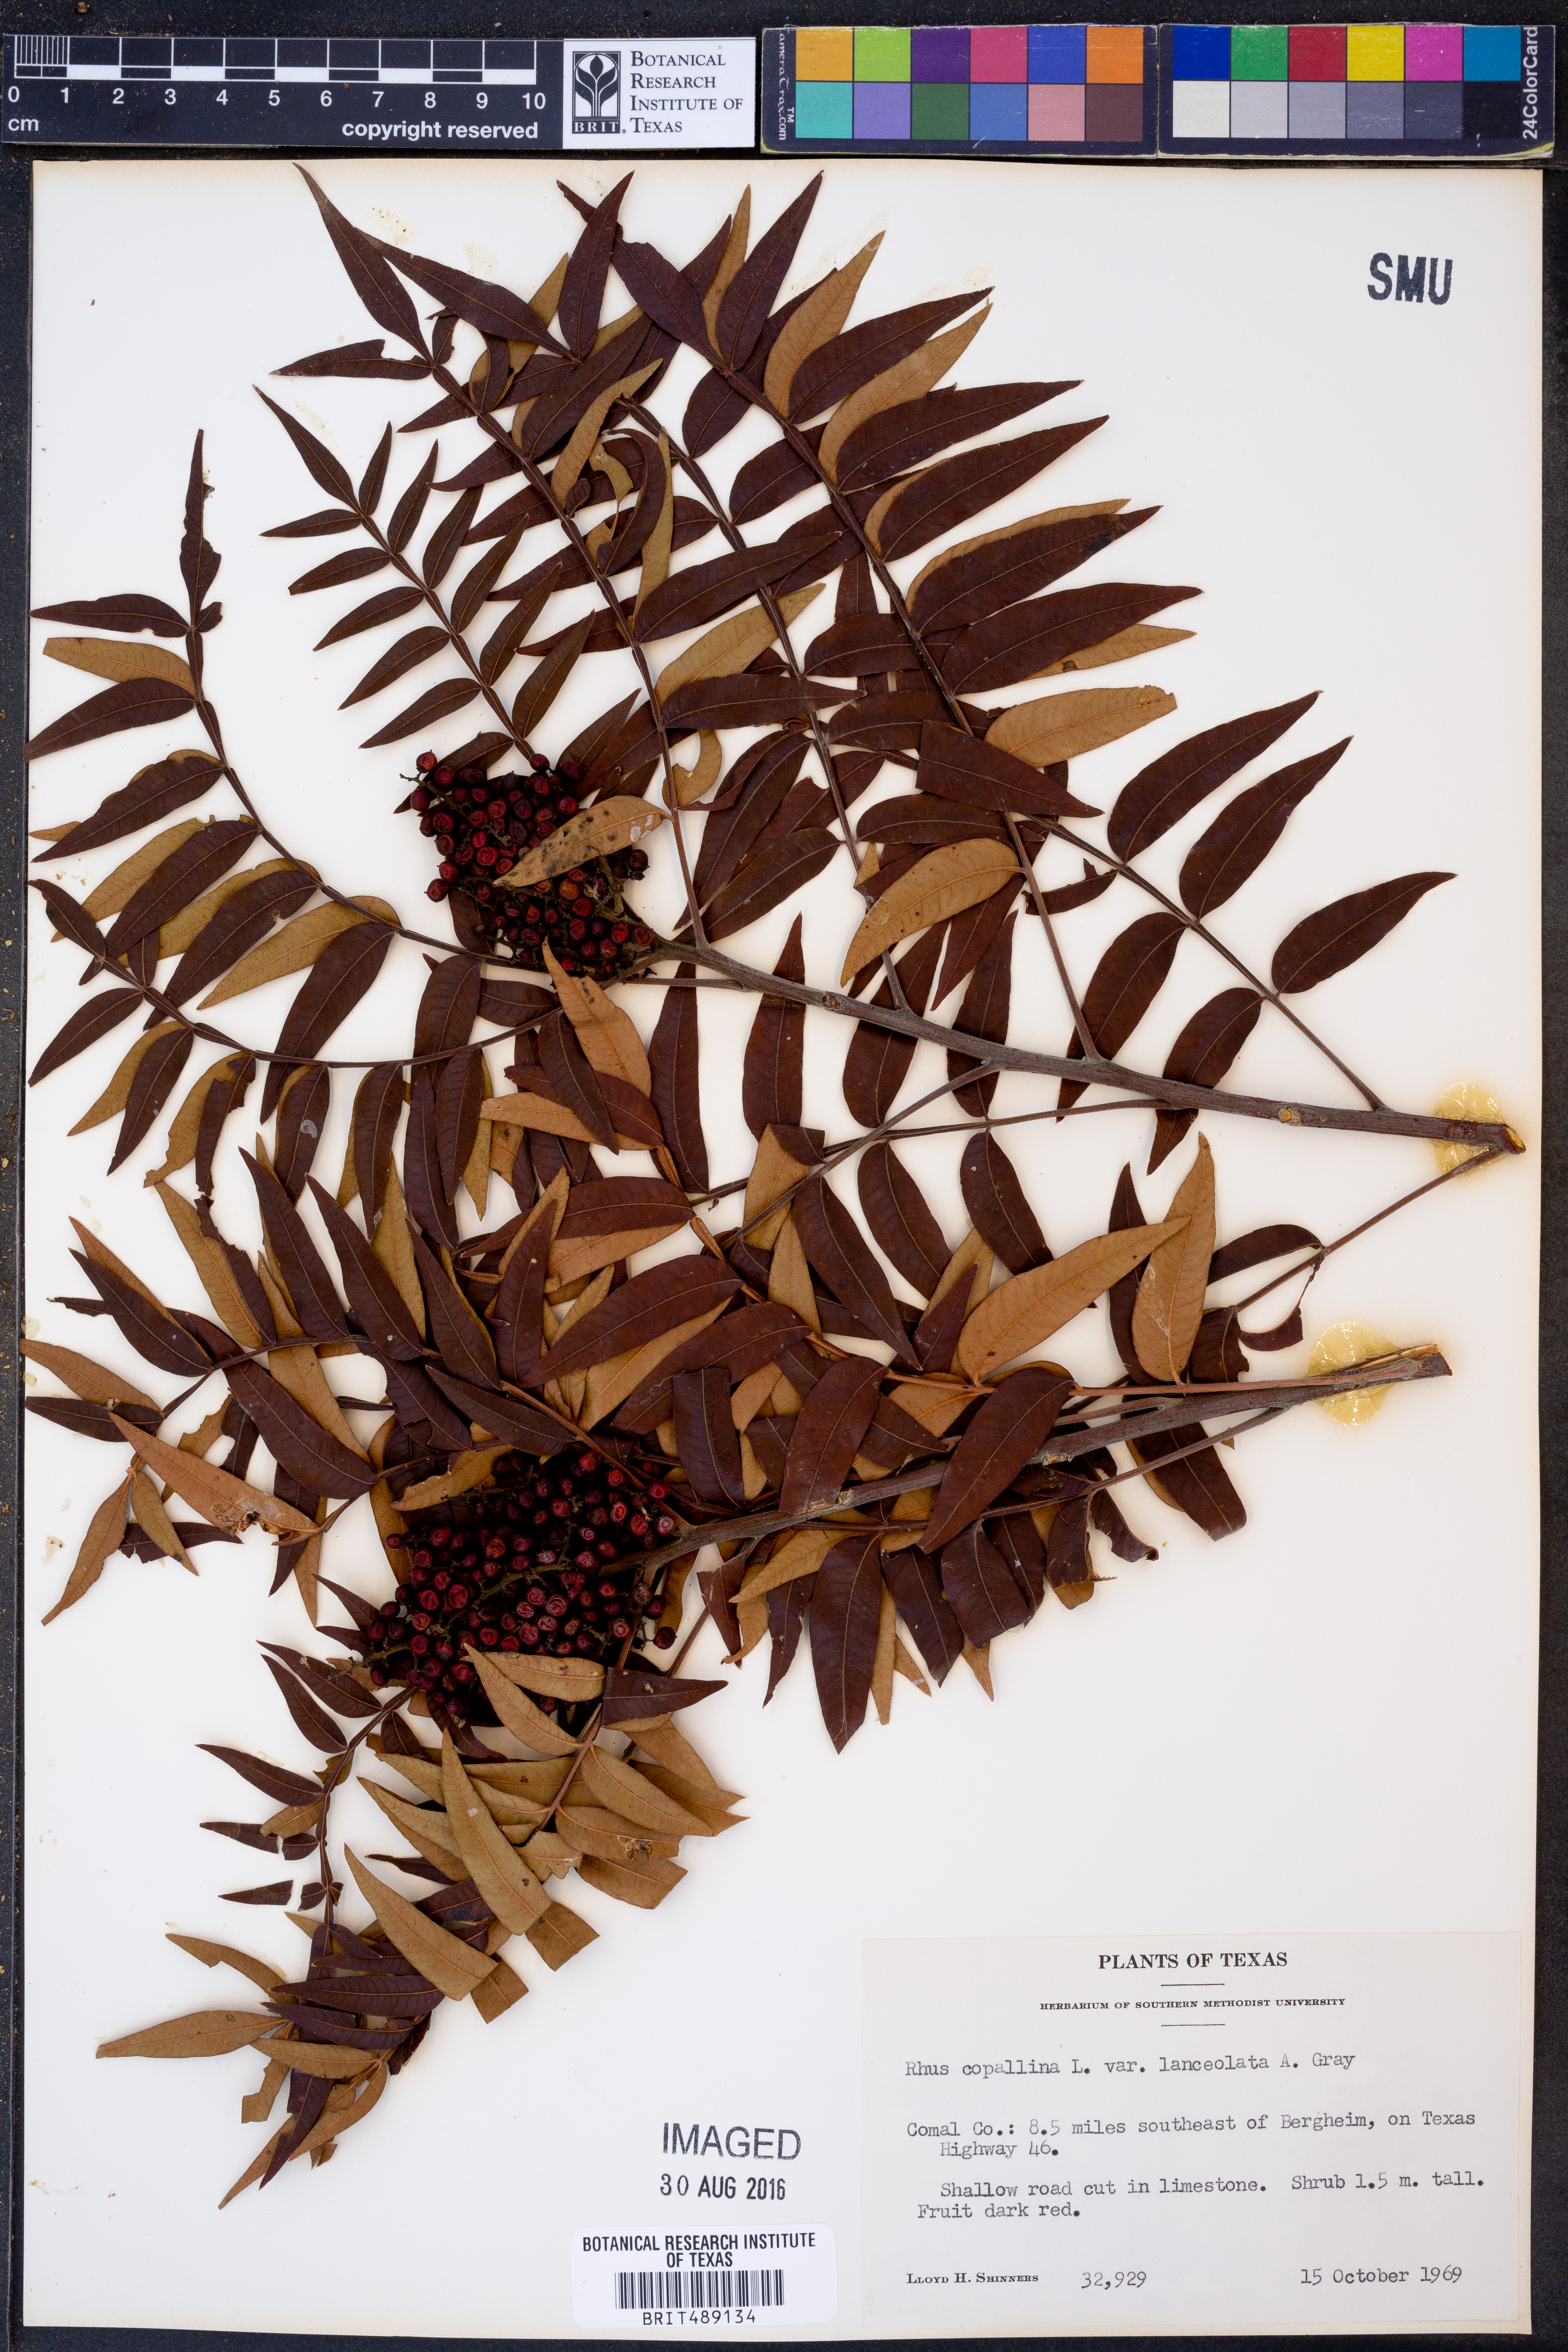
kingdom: Plantae
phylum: Tracheophyta
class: Magnoliopsida
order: Sapindales
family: Anacardiaceae
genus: Rhus
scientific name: Rhus lanceolata
